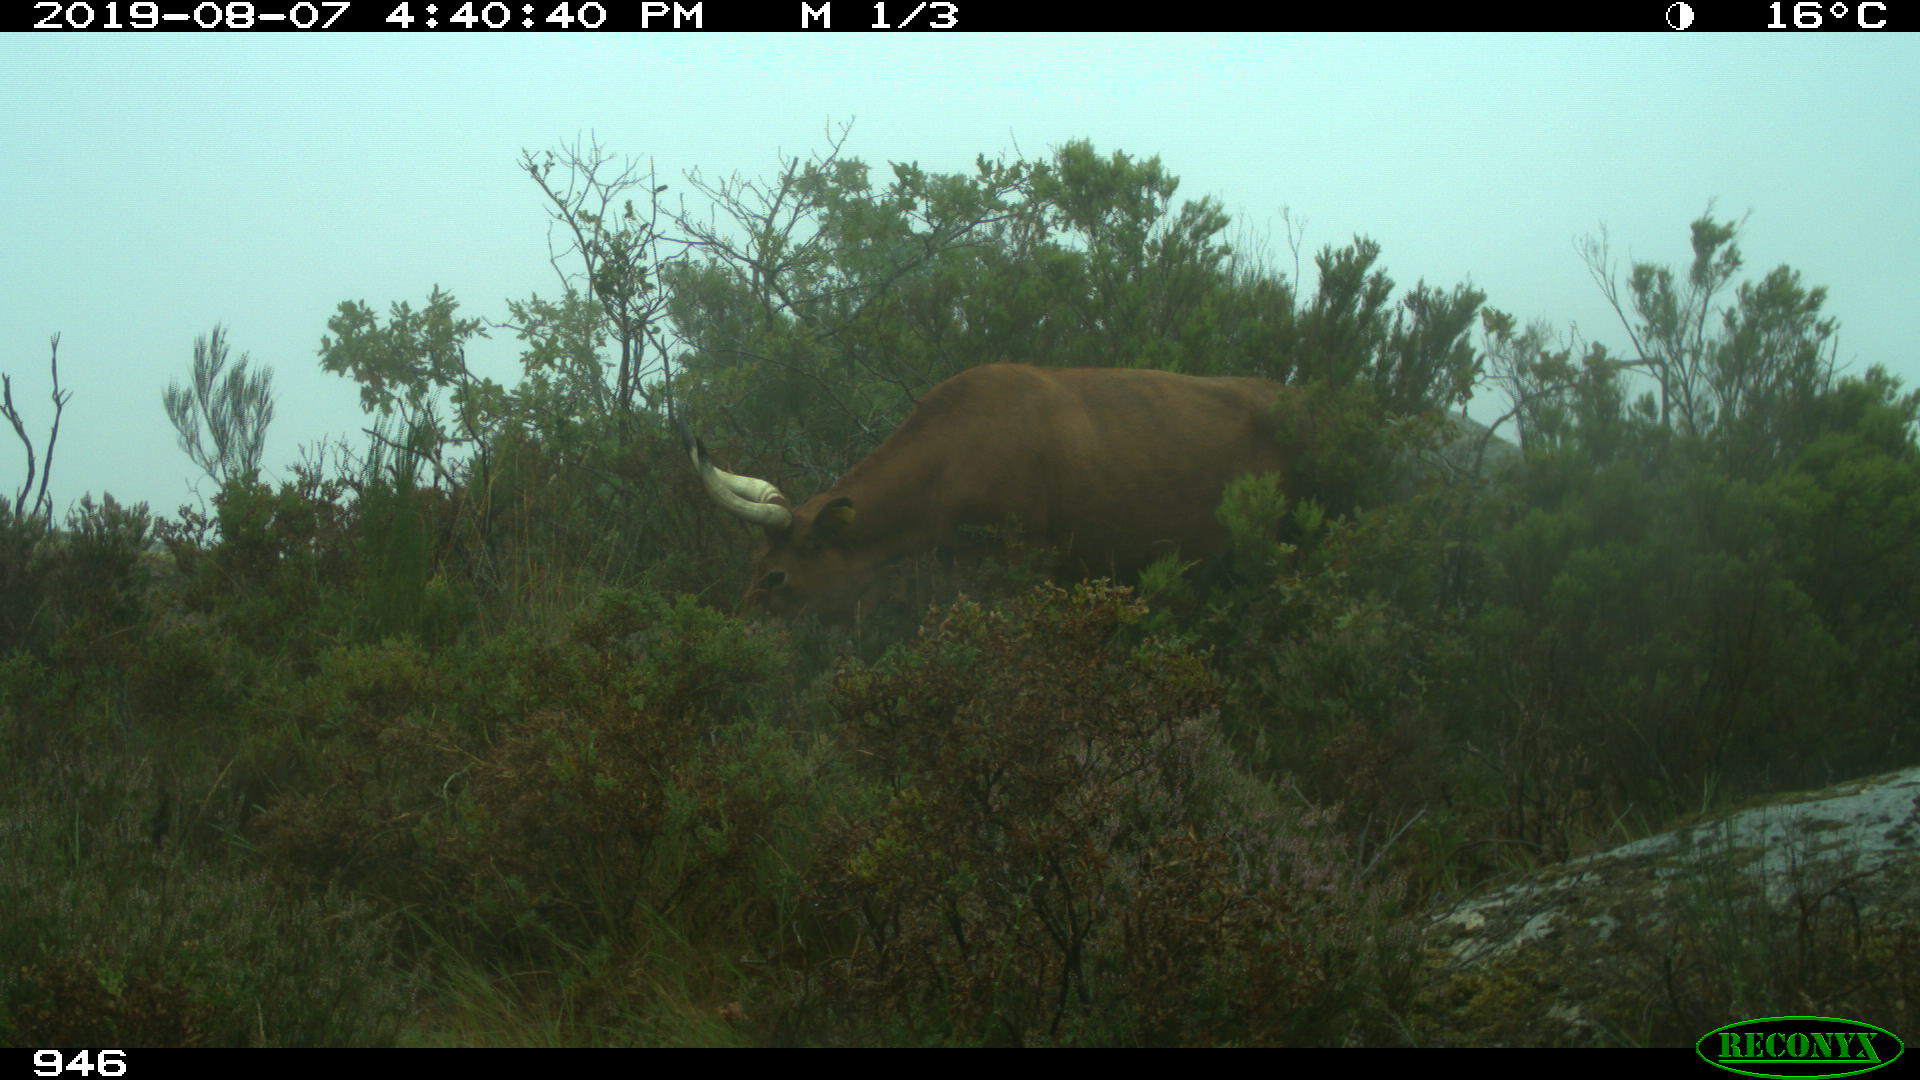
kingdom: Animalia
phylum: Chordata
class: Mammalia
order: Artiodactyla
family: Bovidae
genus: Bos
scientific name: Bos taurus
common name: Domesticated cattle
